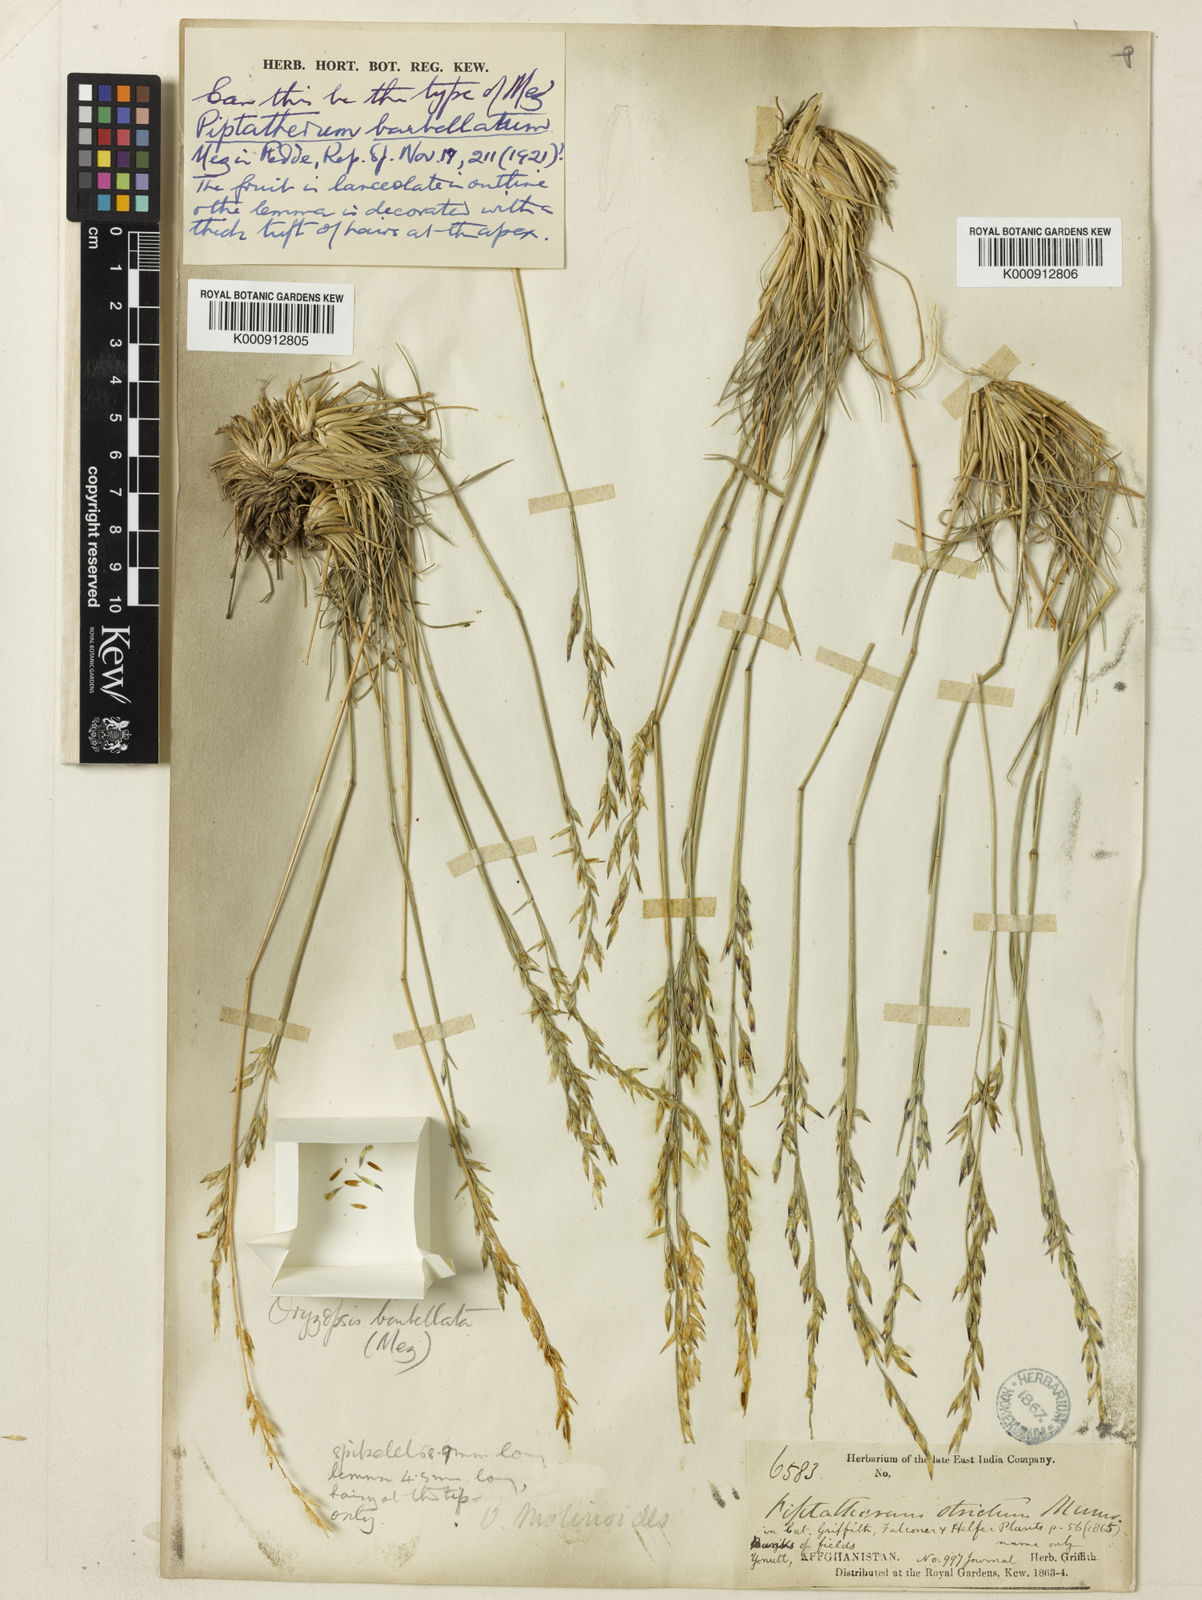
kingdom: Plantae
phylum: Tracheophyta
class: Liliopsida
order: Poales
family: Poaceae
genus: Piptatherum
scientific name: Piptatherum barbellatum
